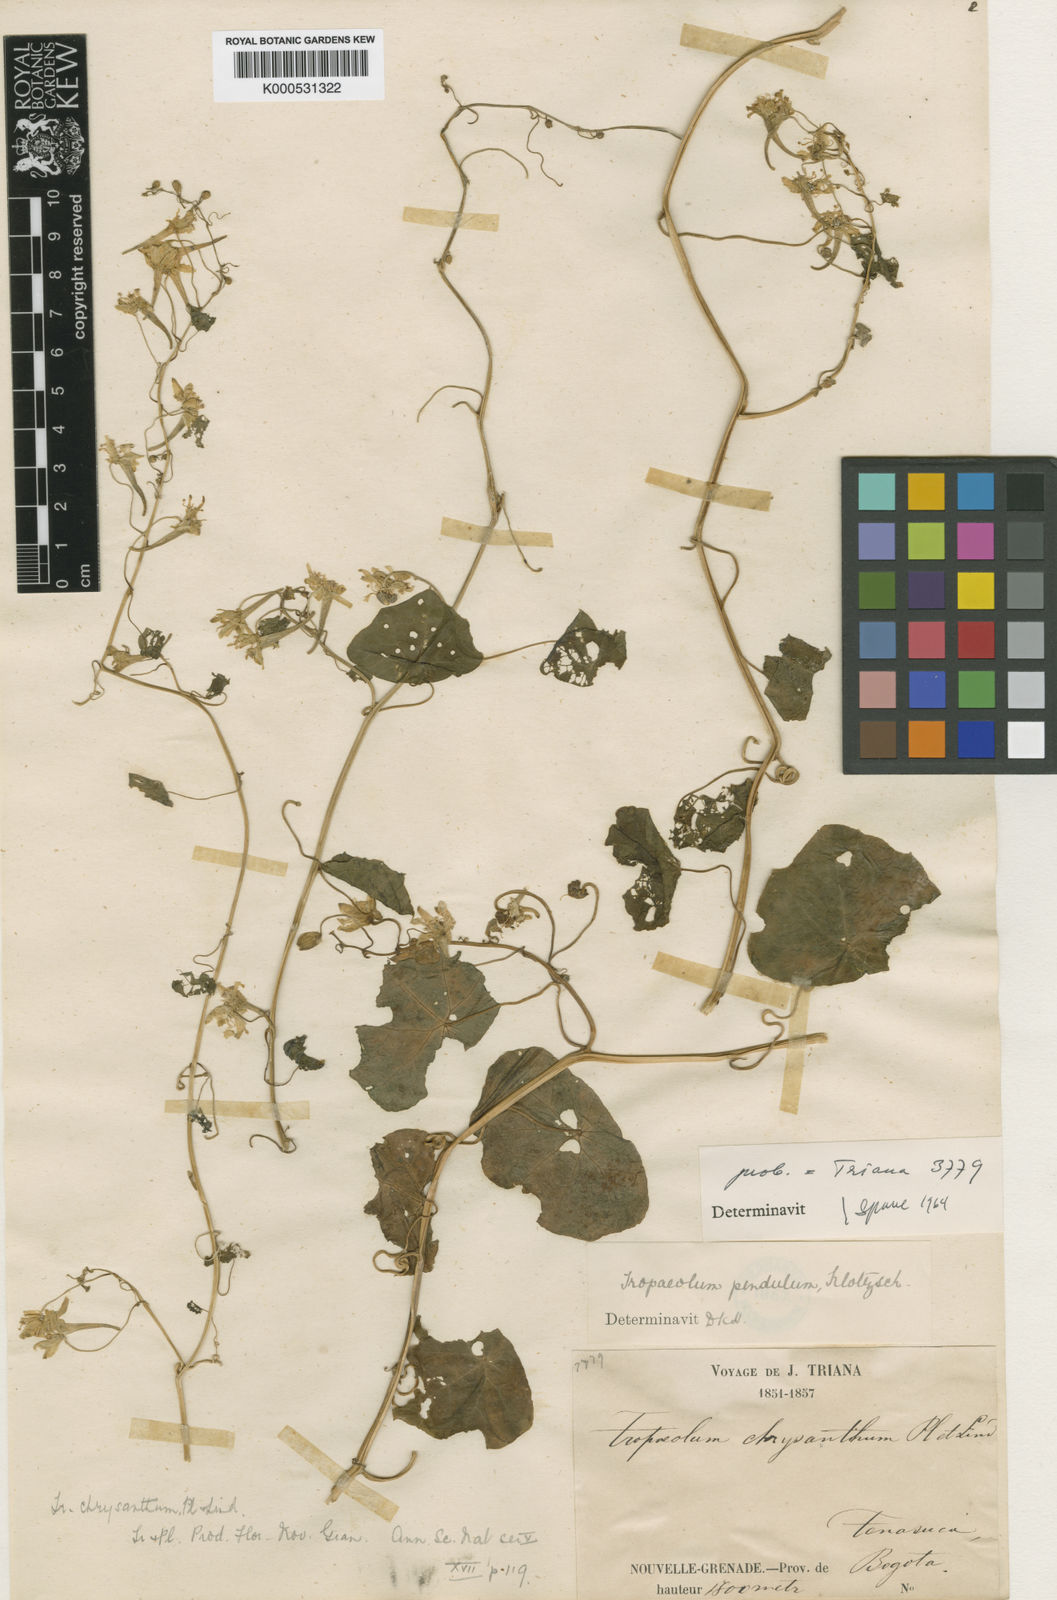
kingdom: Plantae
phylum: Tracheophyta
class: Magnoliopsida
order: Brassicales
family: Tropaeolaceae
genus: Tropaeolum
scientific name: Tropaeolum pendulum
